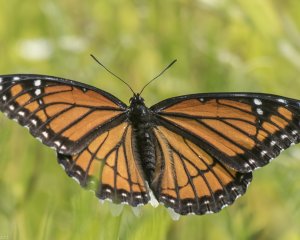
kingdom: Animalia
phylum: Arthropoda
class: Insecta
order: Lepidoptera
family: Nymphalidae
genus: Limenitis
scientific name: Limenitis archippus
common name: Viceroy
